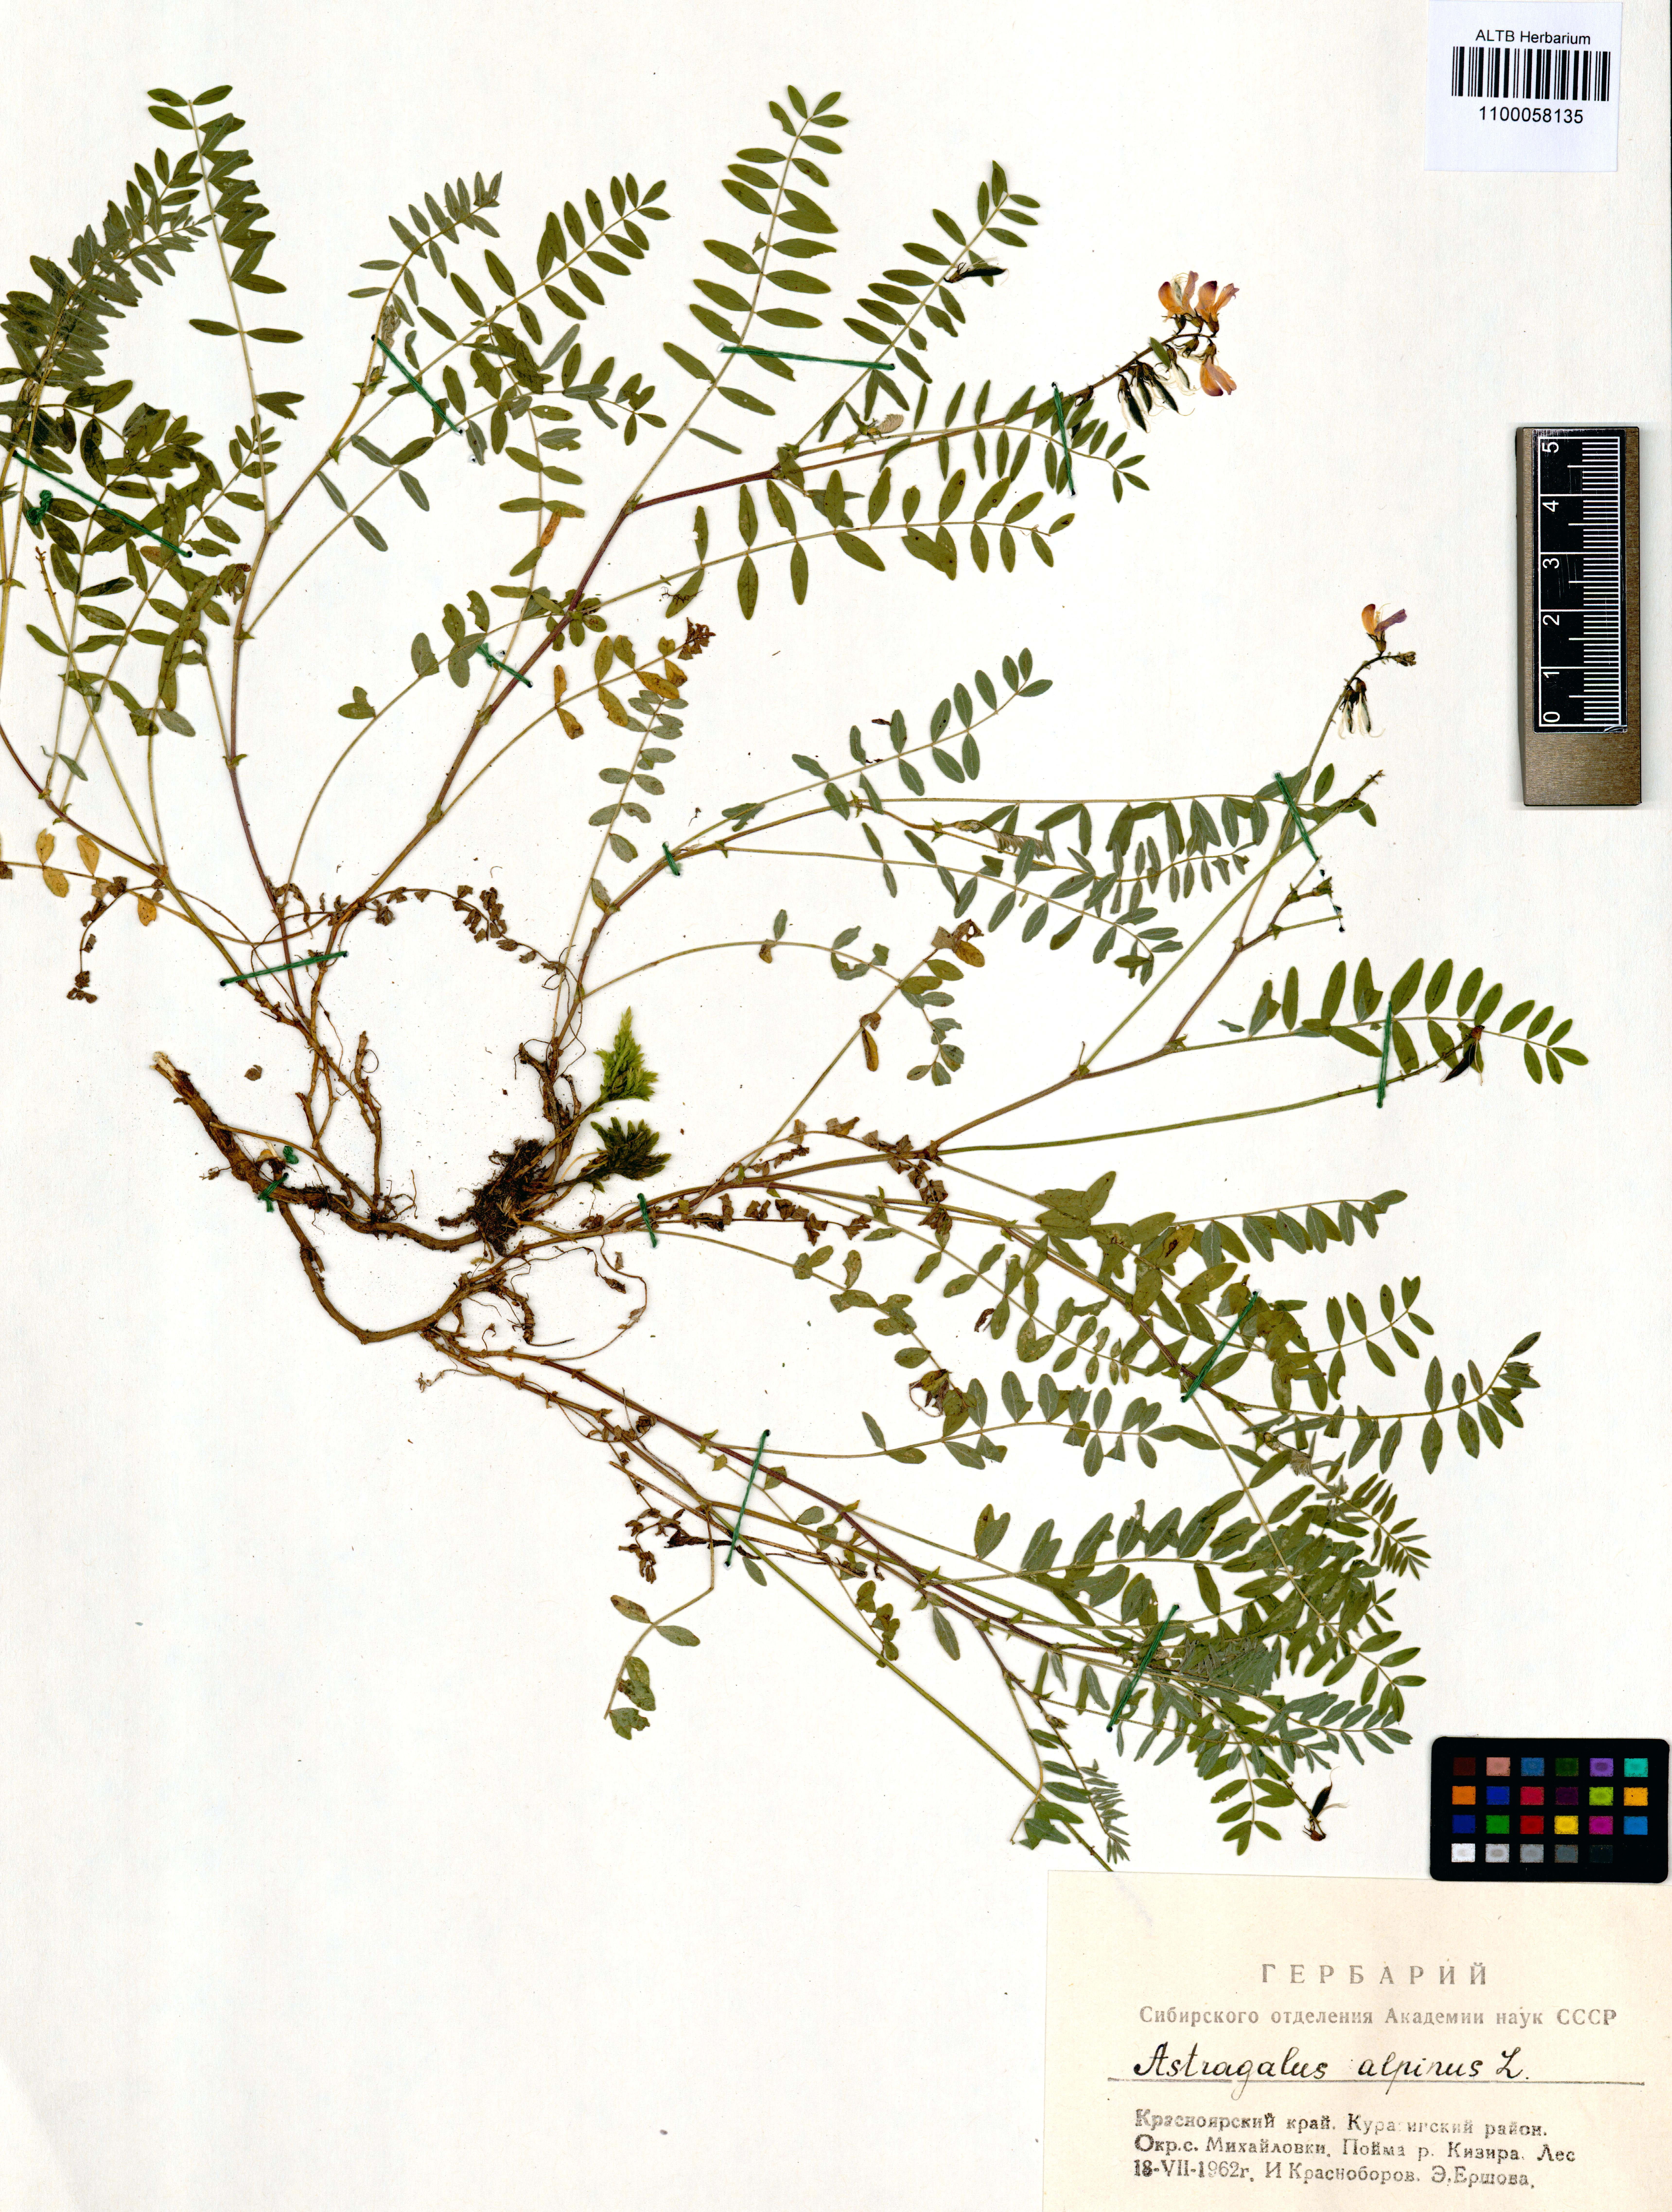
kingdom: Plantae
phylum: Tracheophyta
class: Magnoliopsida
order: Fabales
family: Fabaceae
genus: Astragalus
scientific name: Astragalus alpinus
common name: Alpine milk-vetch
